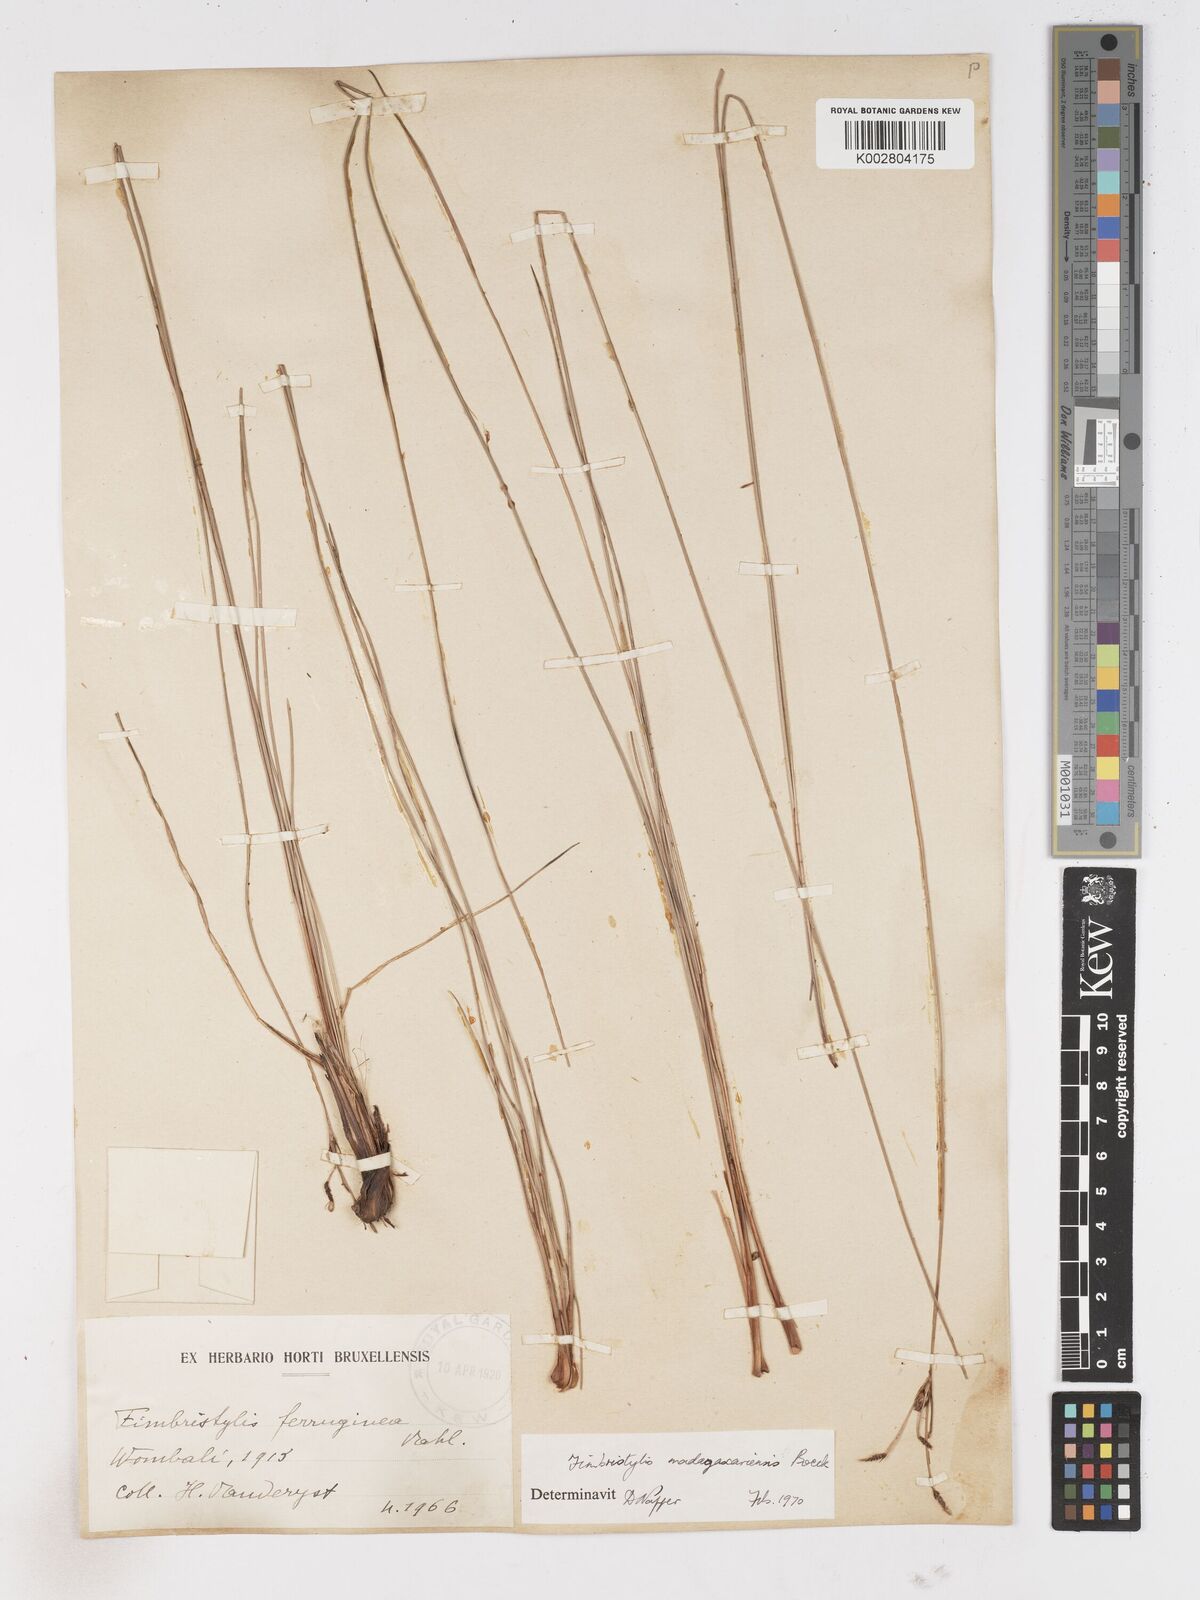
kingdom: Plantae
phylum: Tracheophyta
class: Liliopsida
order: Poales
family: Cyperaceae
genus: Fimbristylis
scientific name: Fimbristylis madagascariensis
